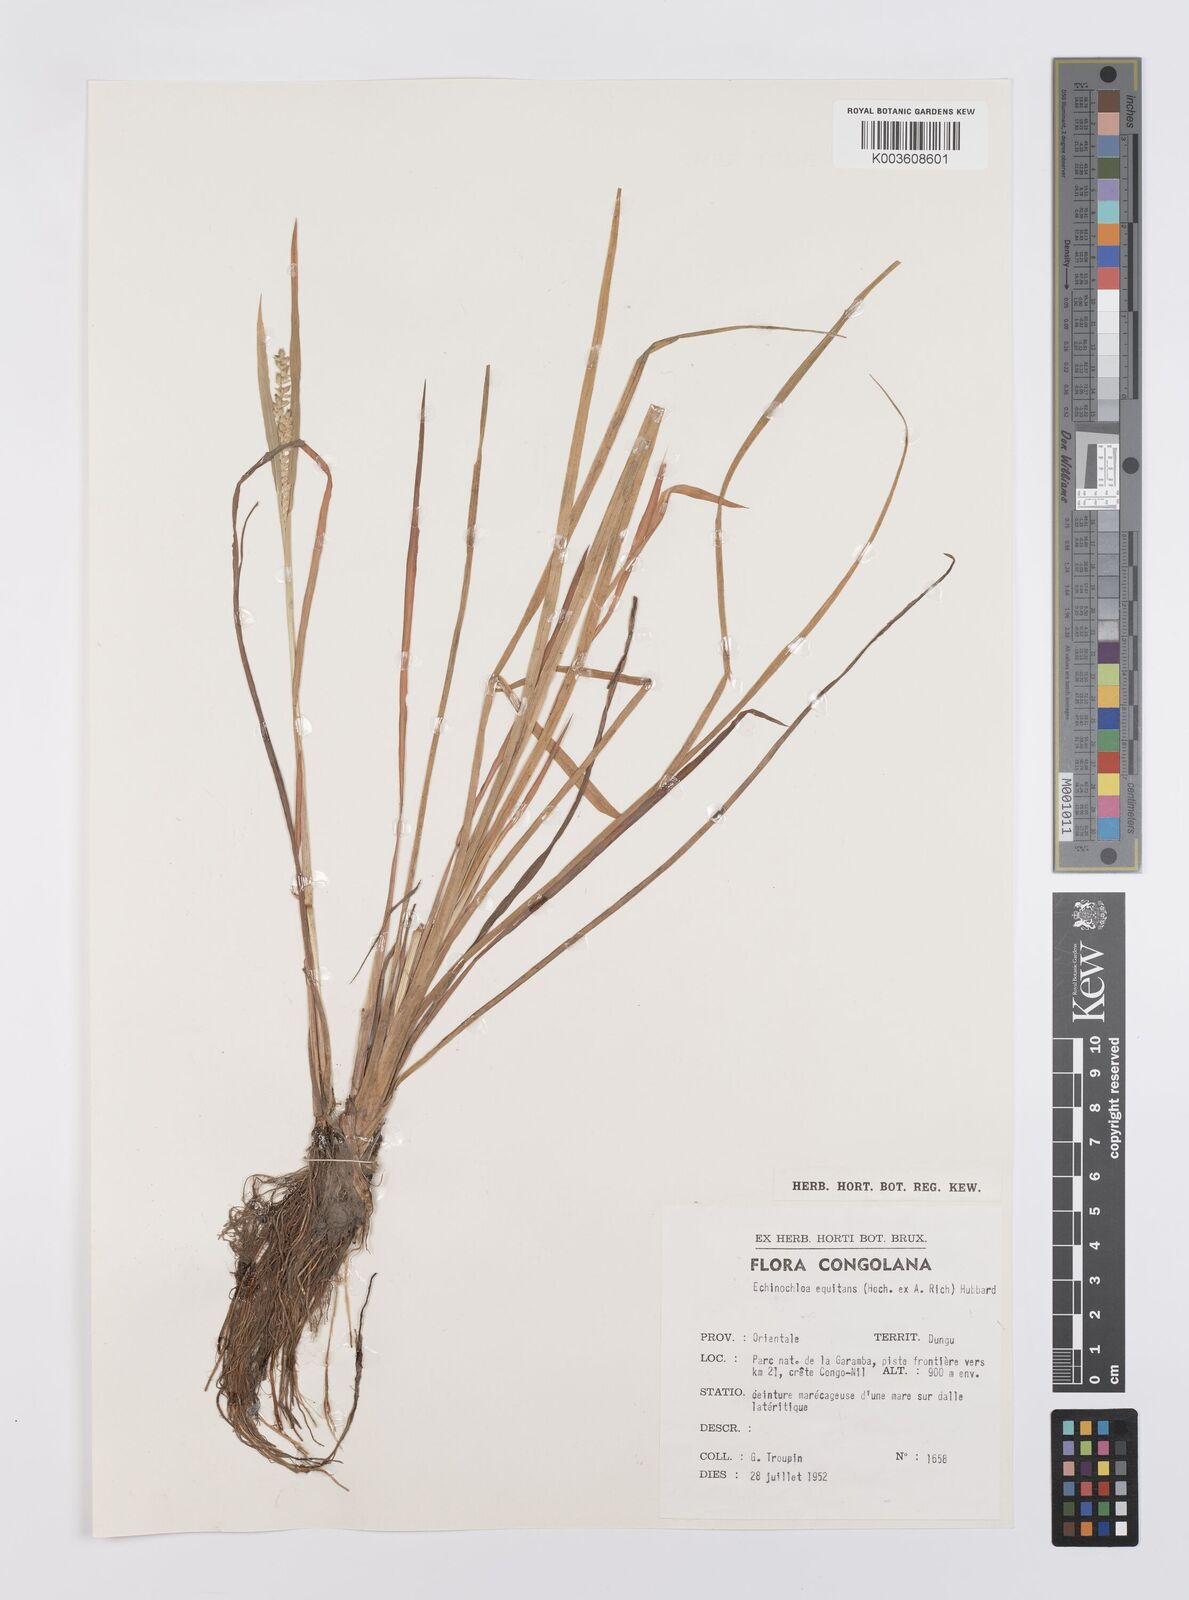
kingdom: Plantae
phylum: Tracheophyta
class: Liliopsida
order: Poales
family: Poaceae
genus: Echinochloa
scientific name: Echinochloa colonum
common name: Jungle rice
